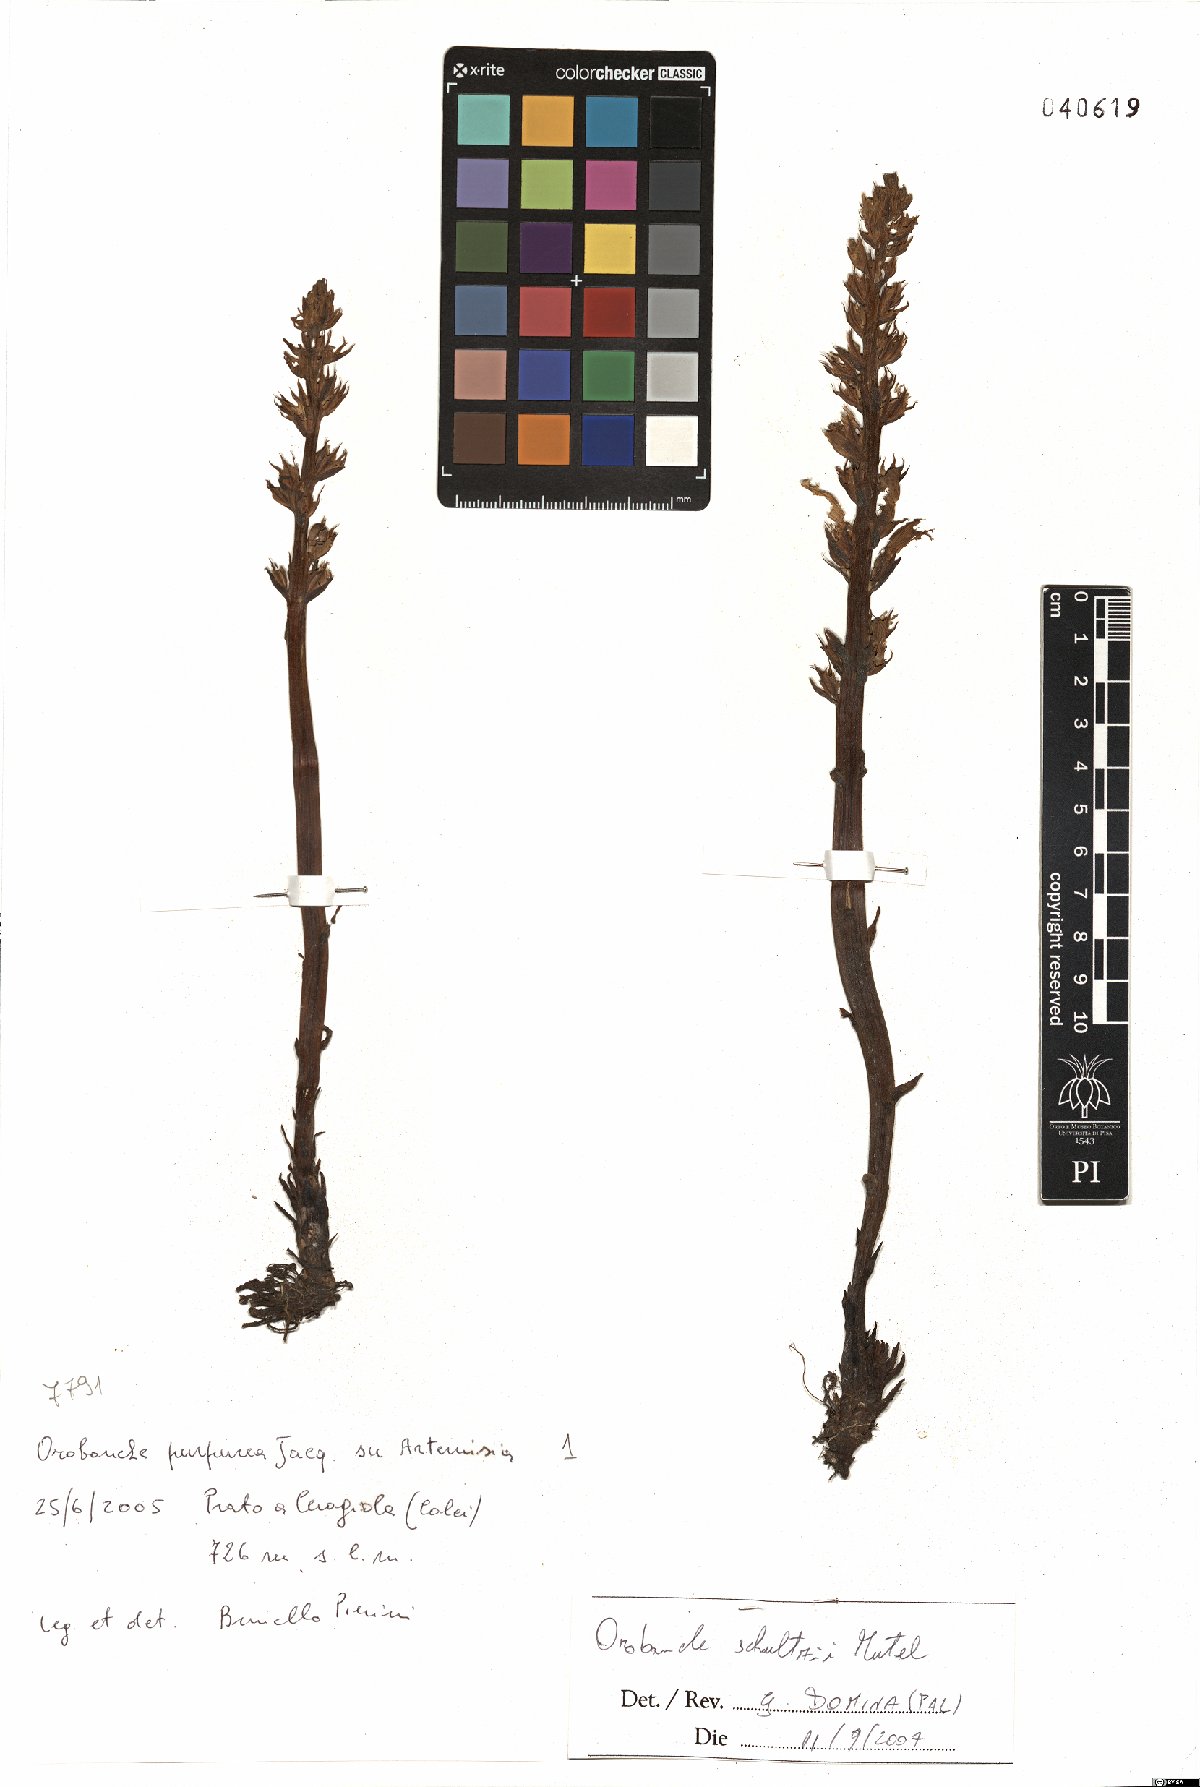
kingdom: Plantae
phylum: Tracheophyta
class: Magnoliopsida
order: Lamiales
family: Orobanchaceae
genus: Phelipanche
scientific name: Phelipanche schultzii
